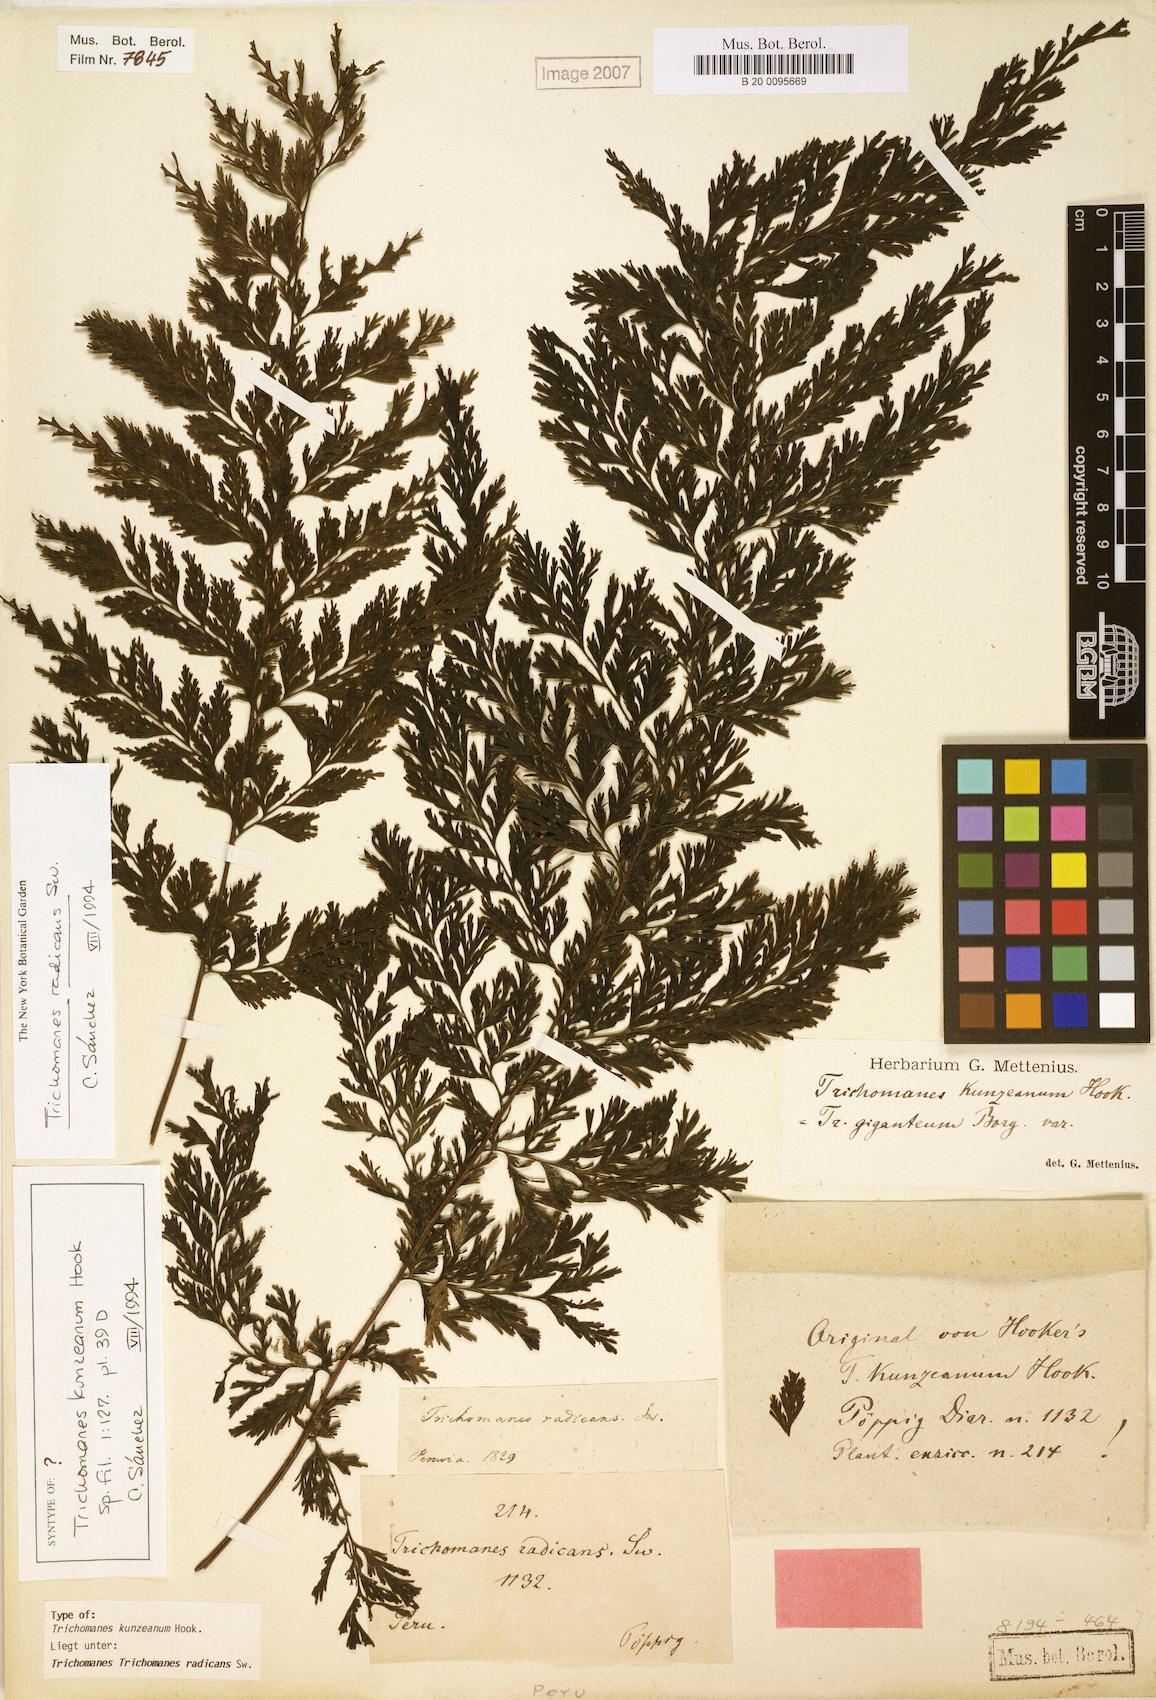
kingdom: Plantae
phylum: Tracheophyta
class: Polypodiopsida
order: Hymenophyllales
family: Hymenophyllaceae
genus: Vandenboschia
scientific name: Vandenboschia radicans
